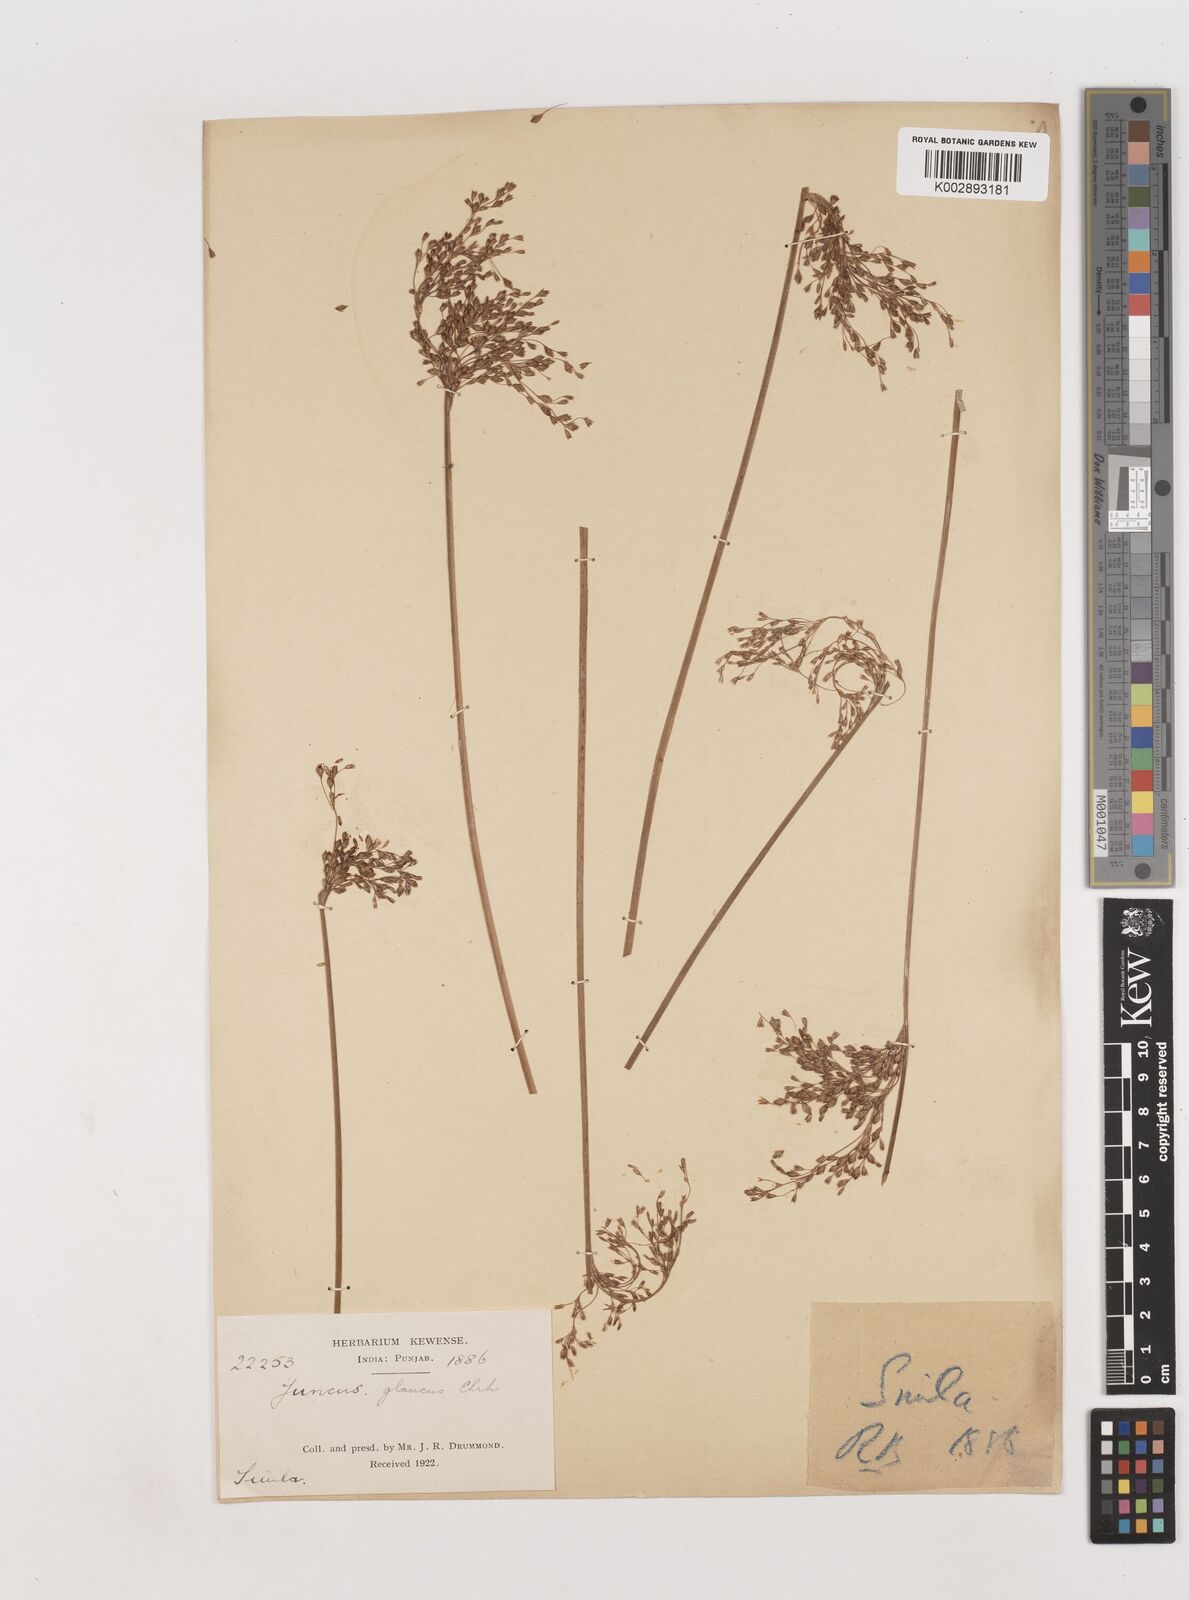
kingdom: Plantae
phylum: Tracheophyta
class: Liliopsida
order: Poales
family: Juncaceae
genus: Juncus
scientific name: Juncus inflexus
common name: Hard rush
